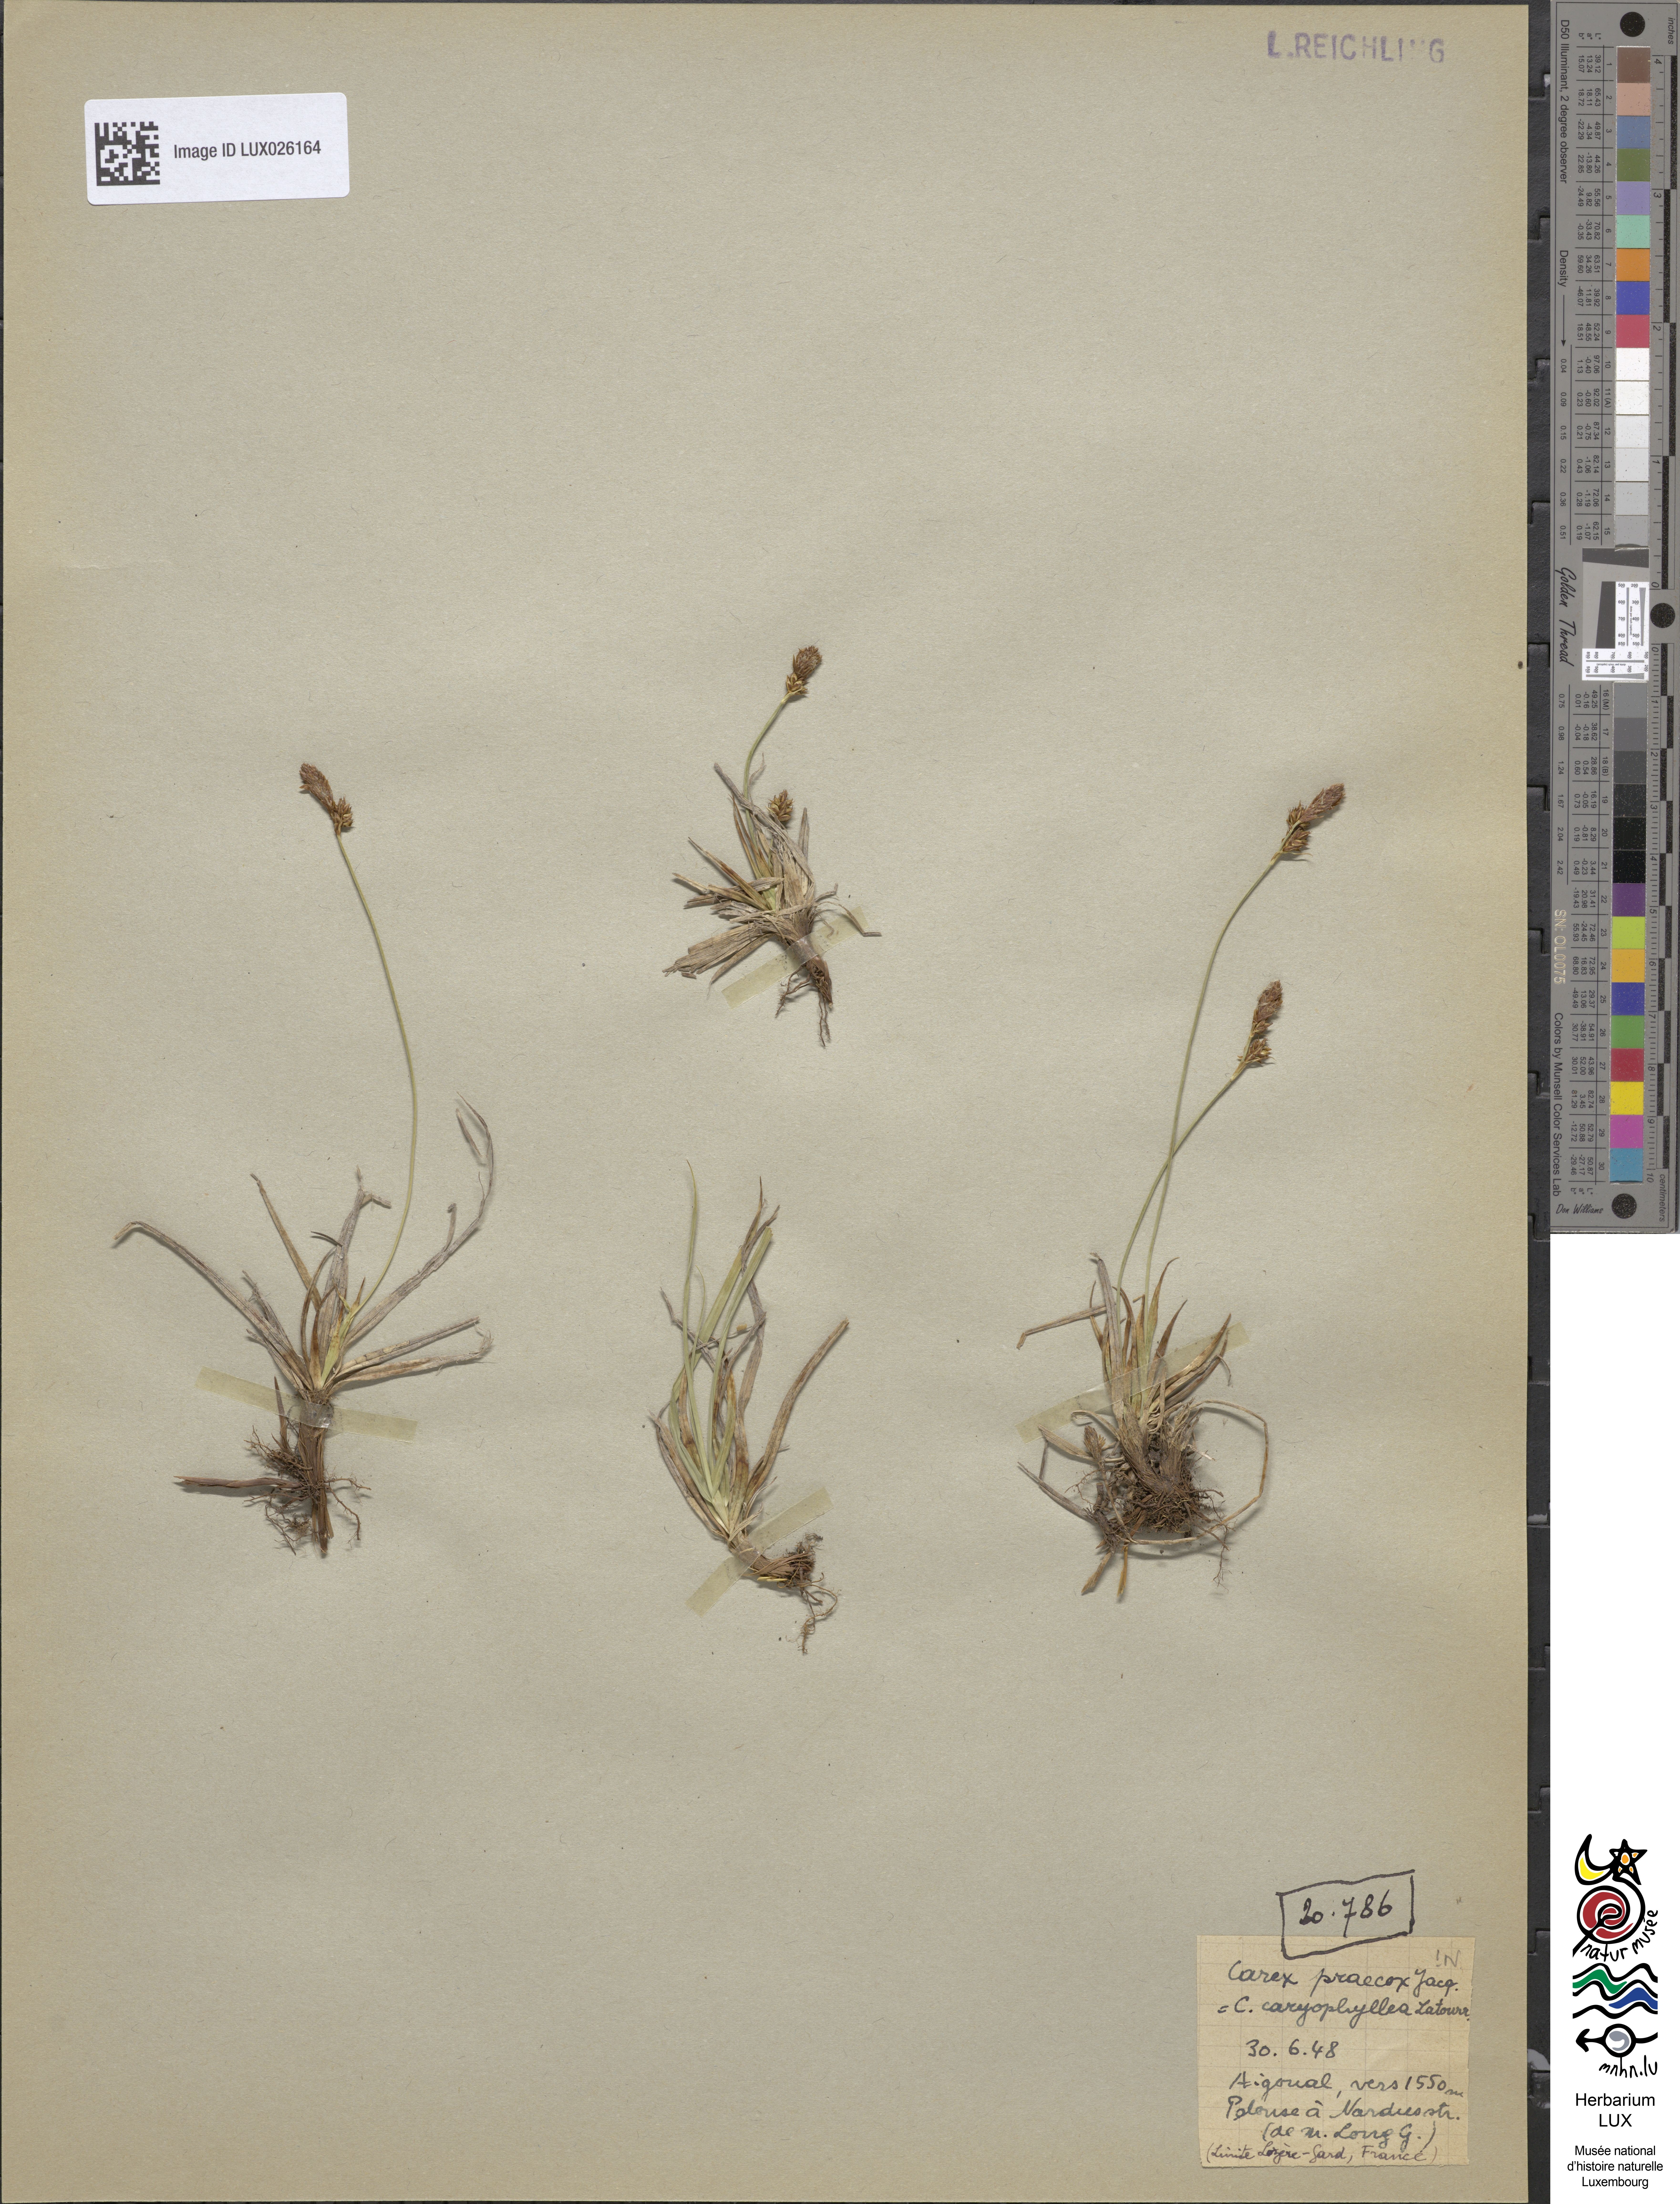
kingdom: Plantae
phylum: Tracheophyta
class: Liliopsida
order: Poales
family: Cyperaceae
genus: Carex
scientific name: Carex caryophyllea
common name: Spring sedge
